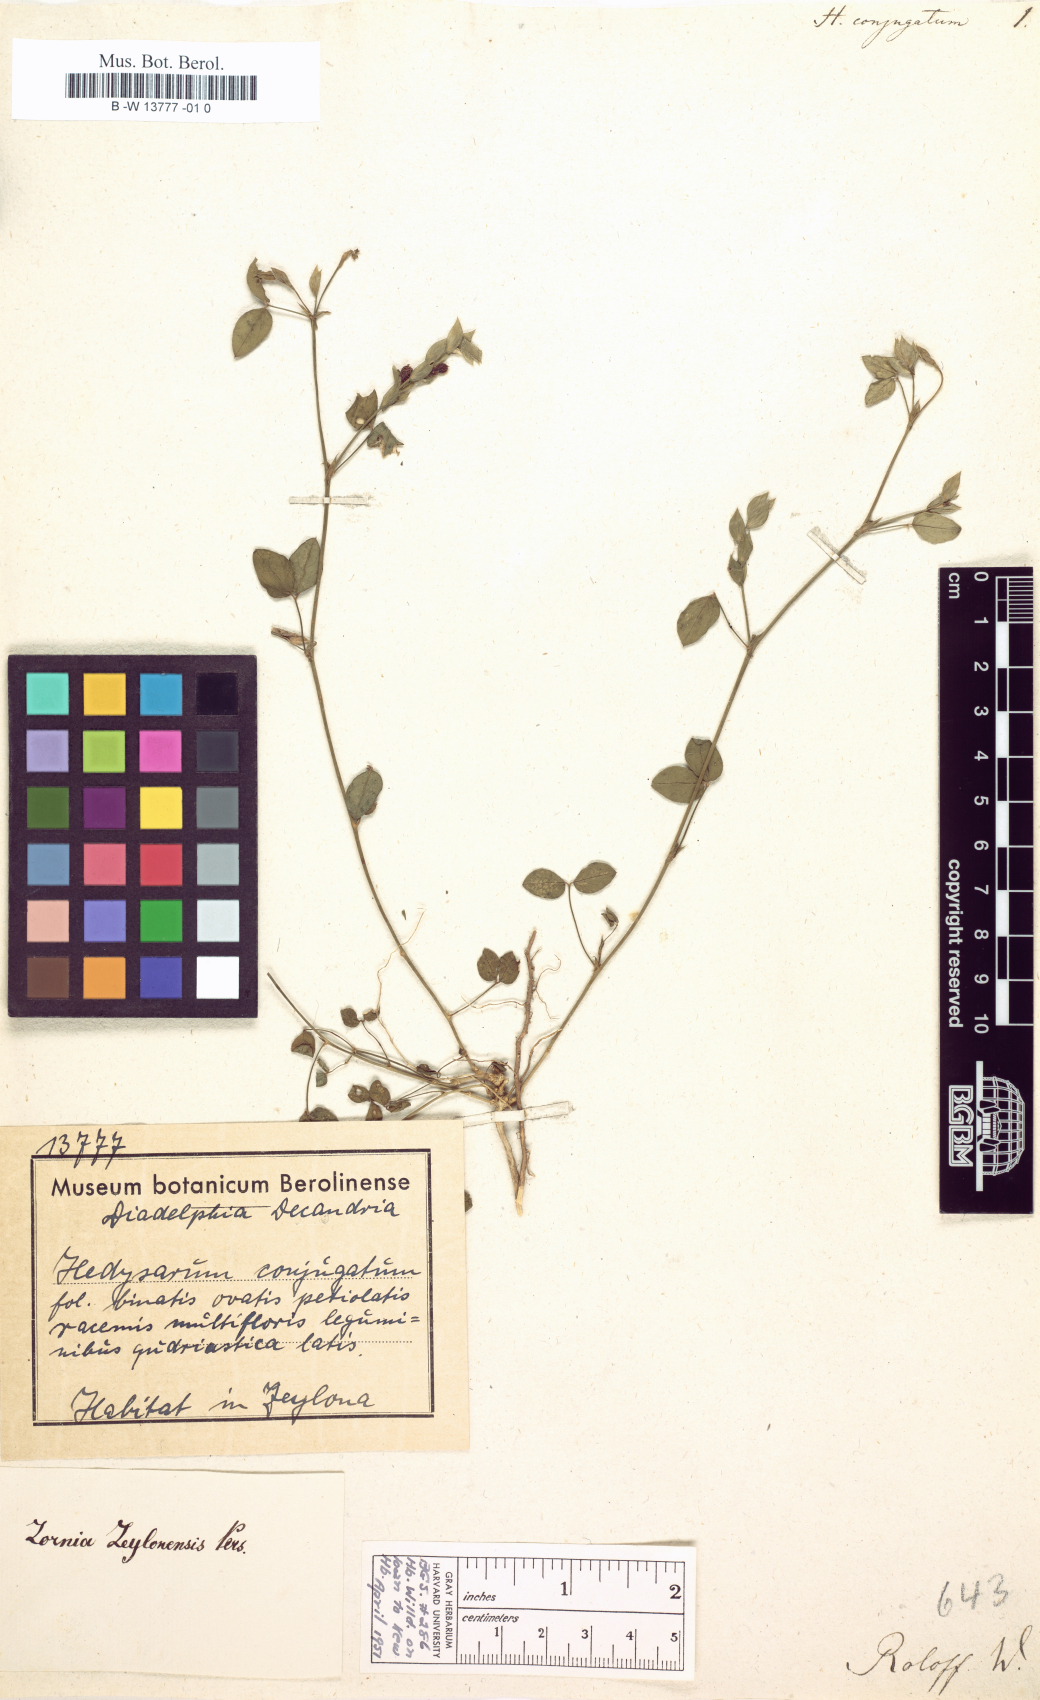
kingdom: Plantae
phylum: Tracheophyta
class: Magnoliopsida
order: Fabales
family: Fabaceae
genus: Zornia
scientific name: Zornia diphylla
